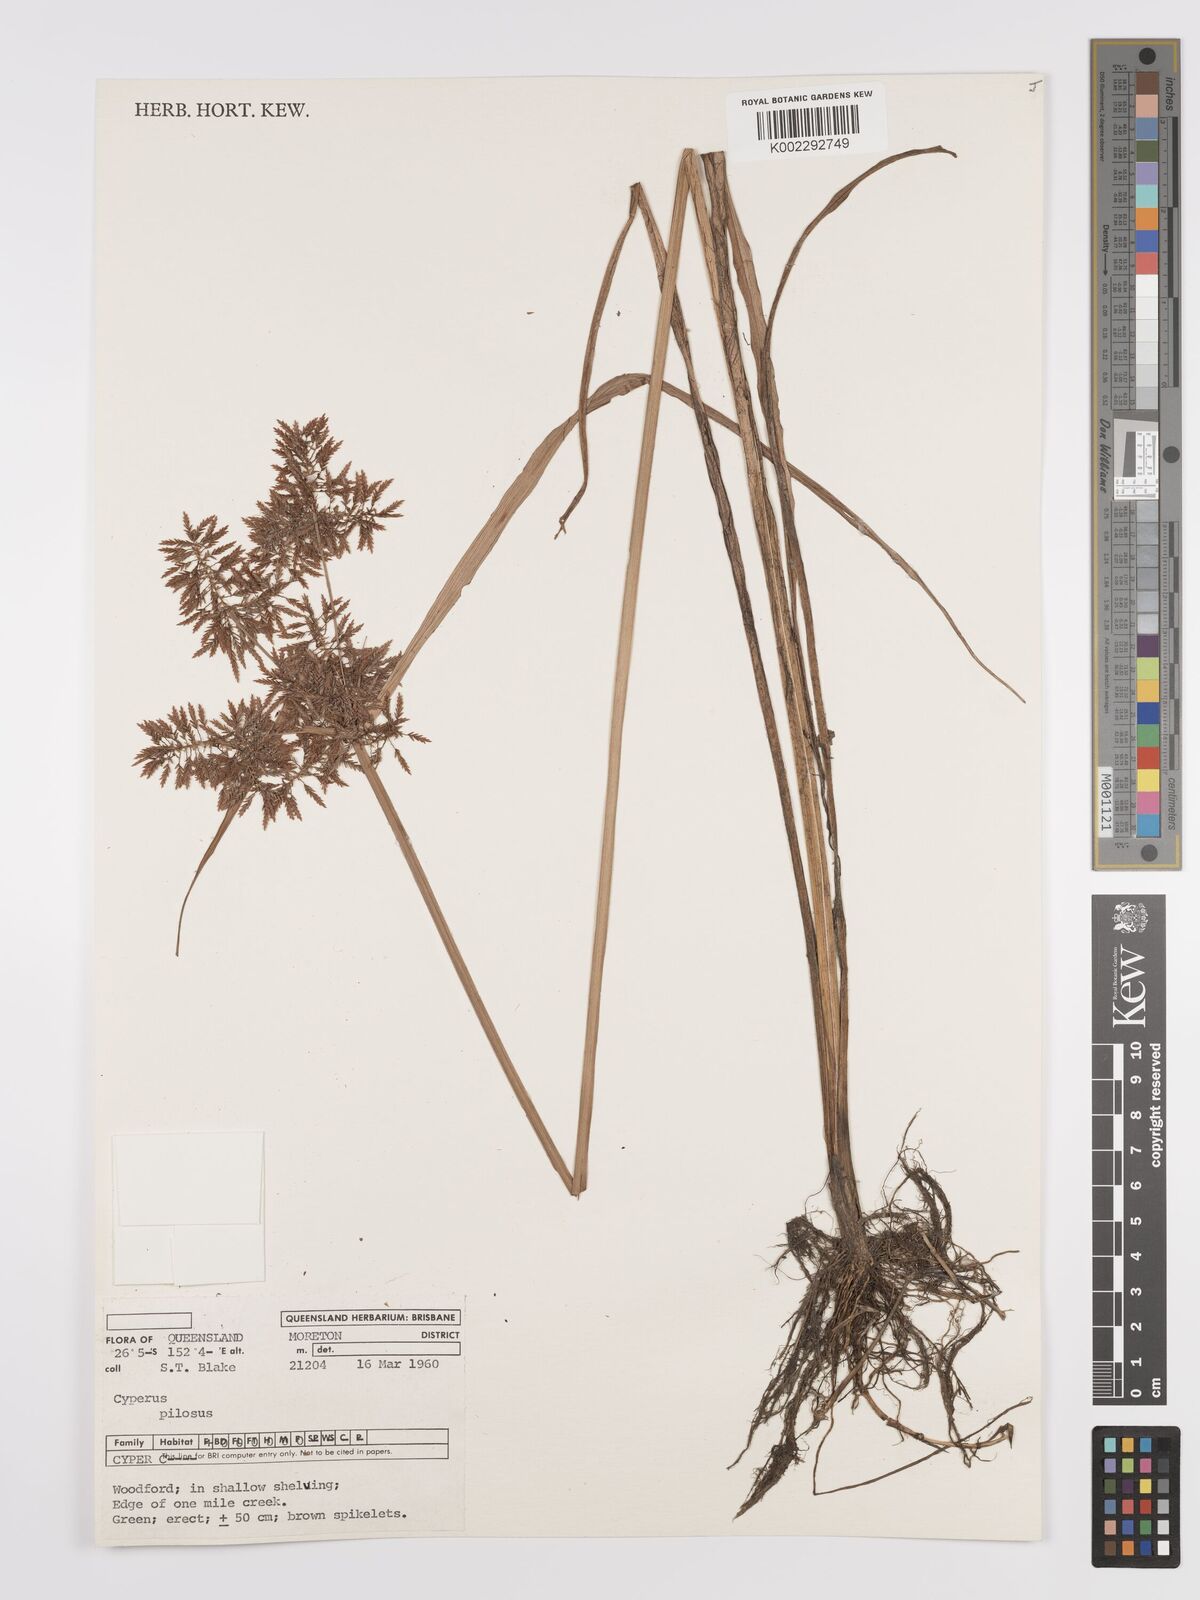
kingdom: Plantae
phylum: Tracheophyta
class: Liliopsida
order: Poales
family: Cyperaceae
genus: Cyperus
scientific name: Cyperus pilosus
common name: Fuzzy flatsedge
